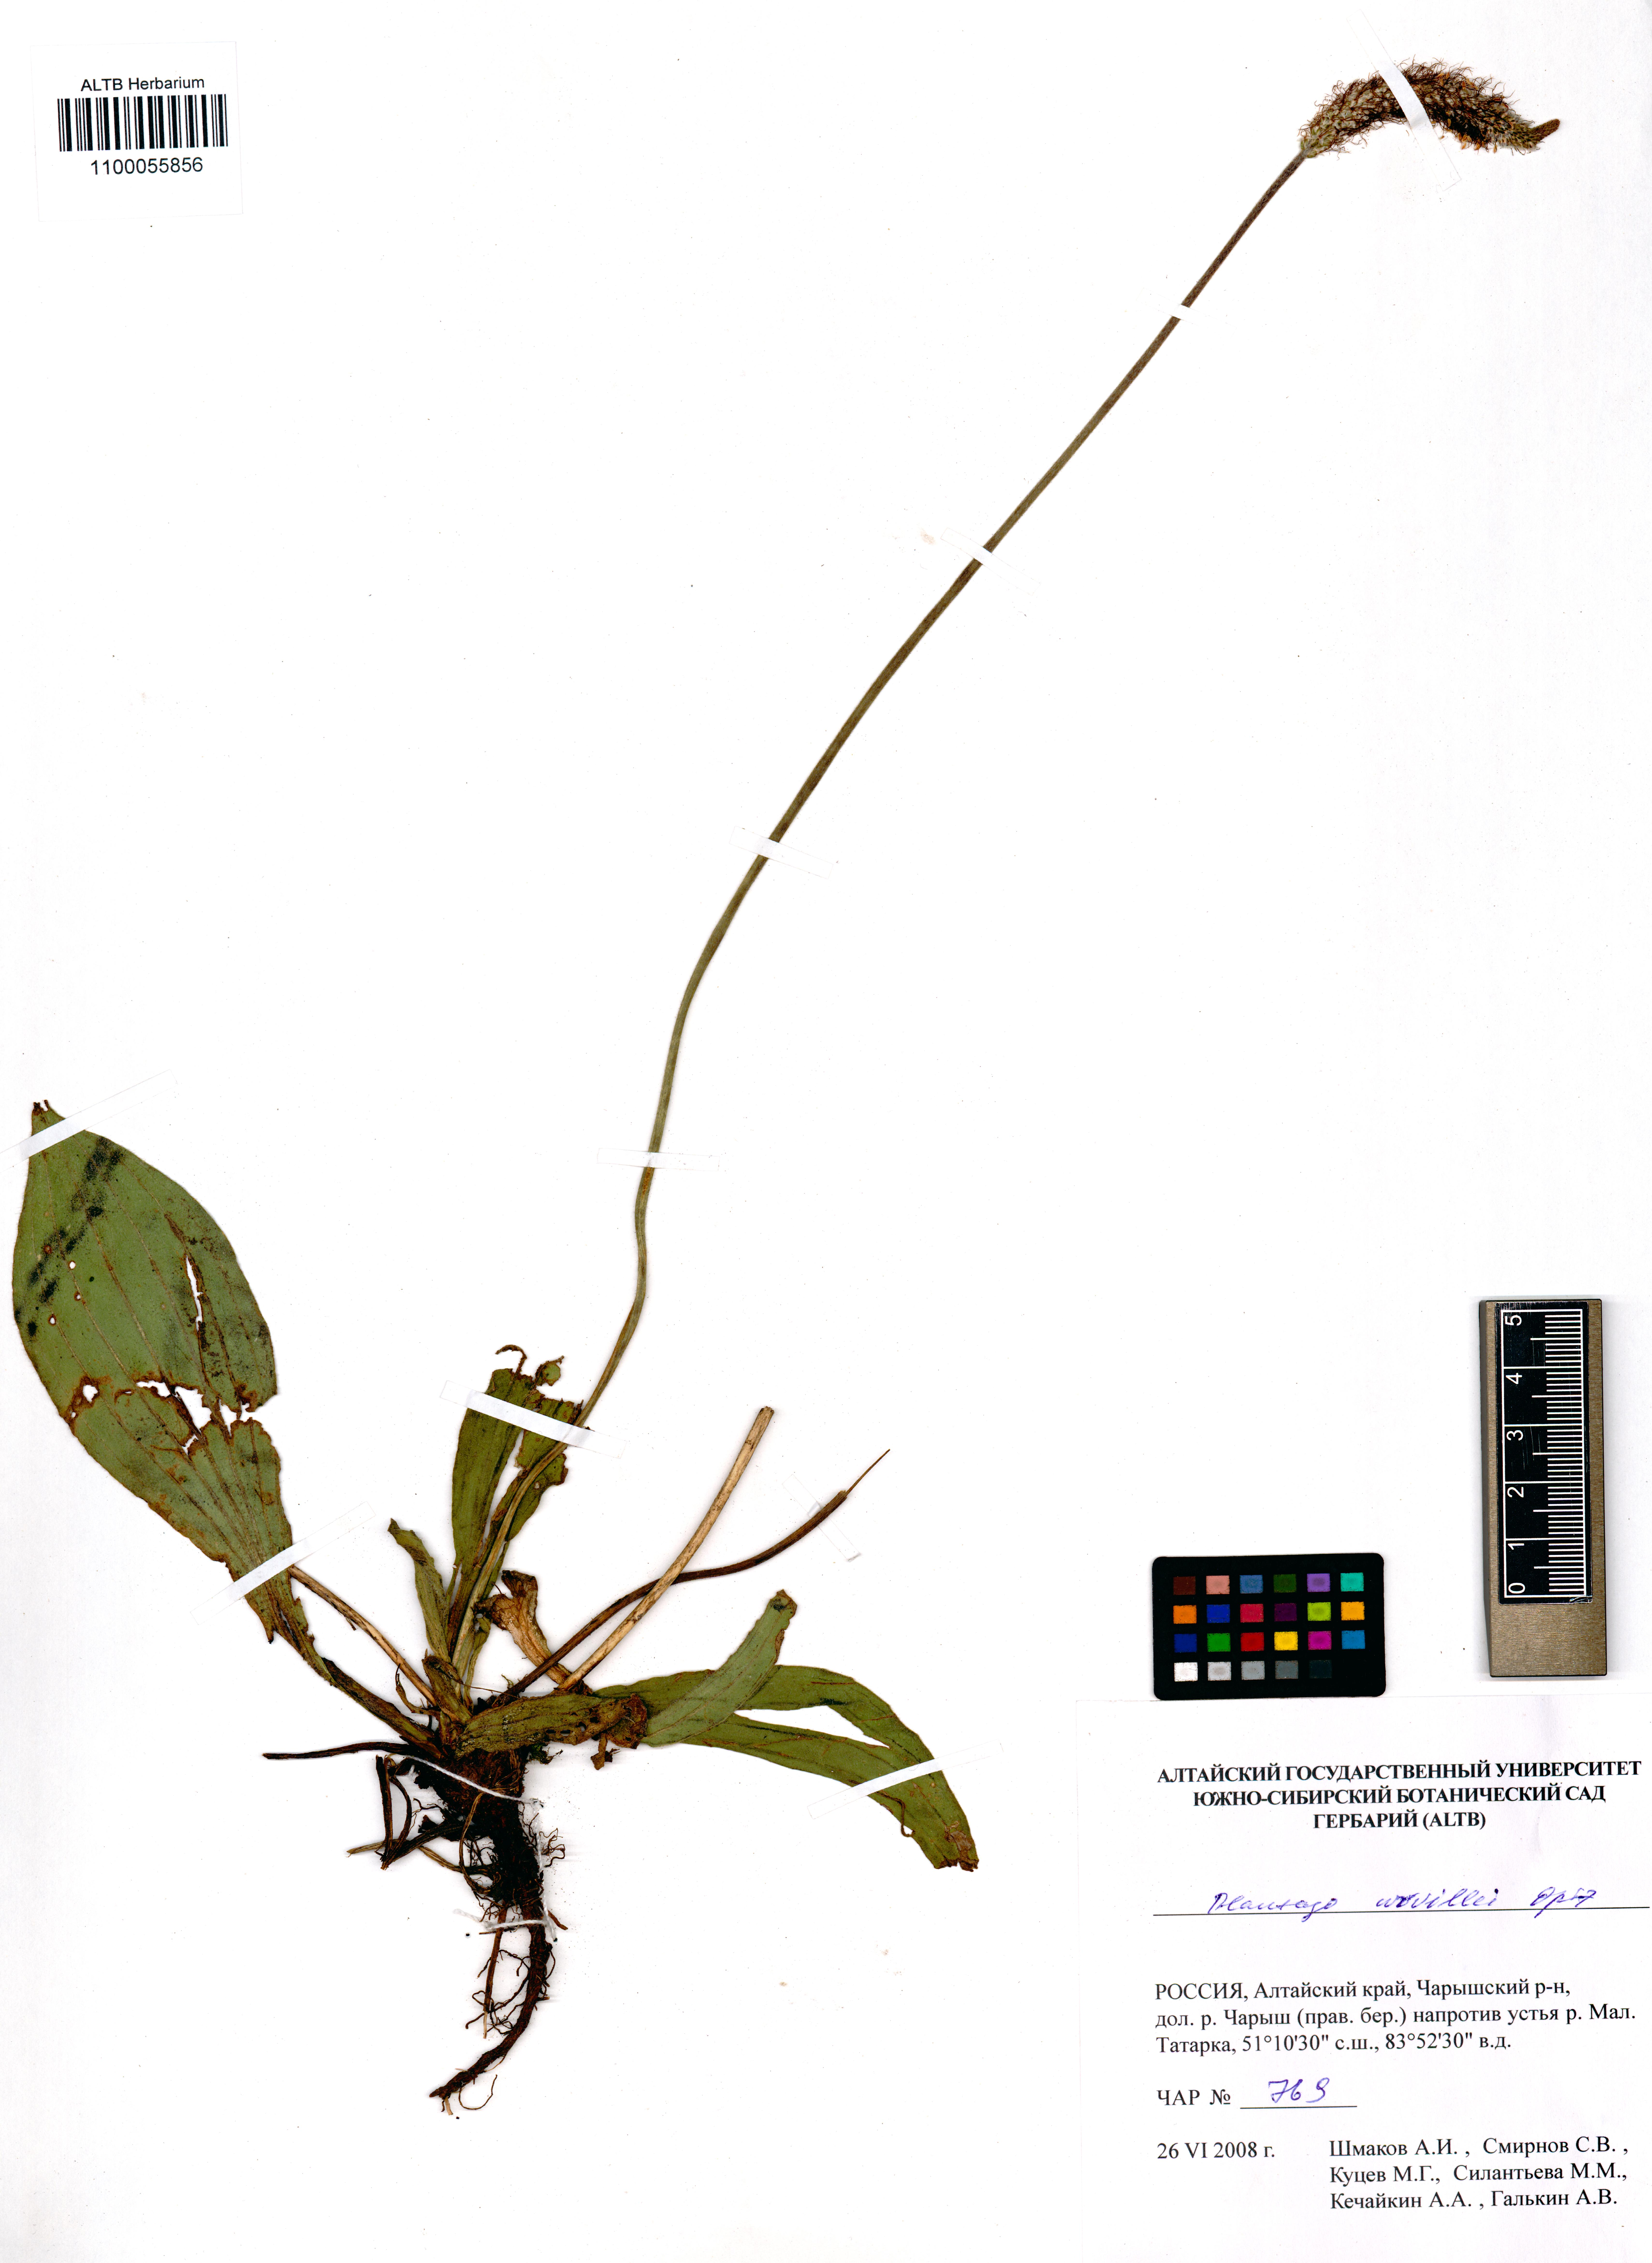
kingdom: Plantae
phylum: Tracheophyta
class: Magnoliopsida
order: Lamiales
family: Plantaginaceae
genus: Plantago
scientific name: Plantago urvillei
